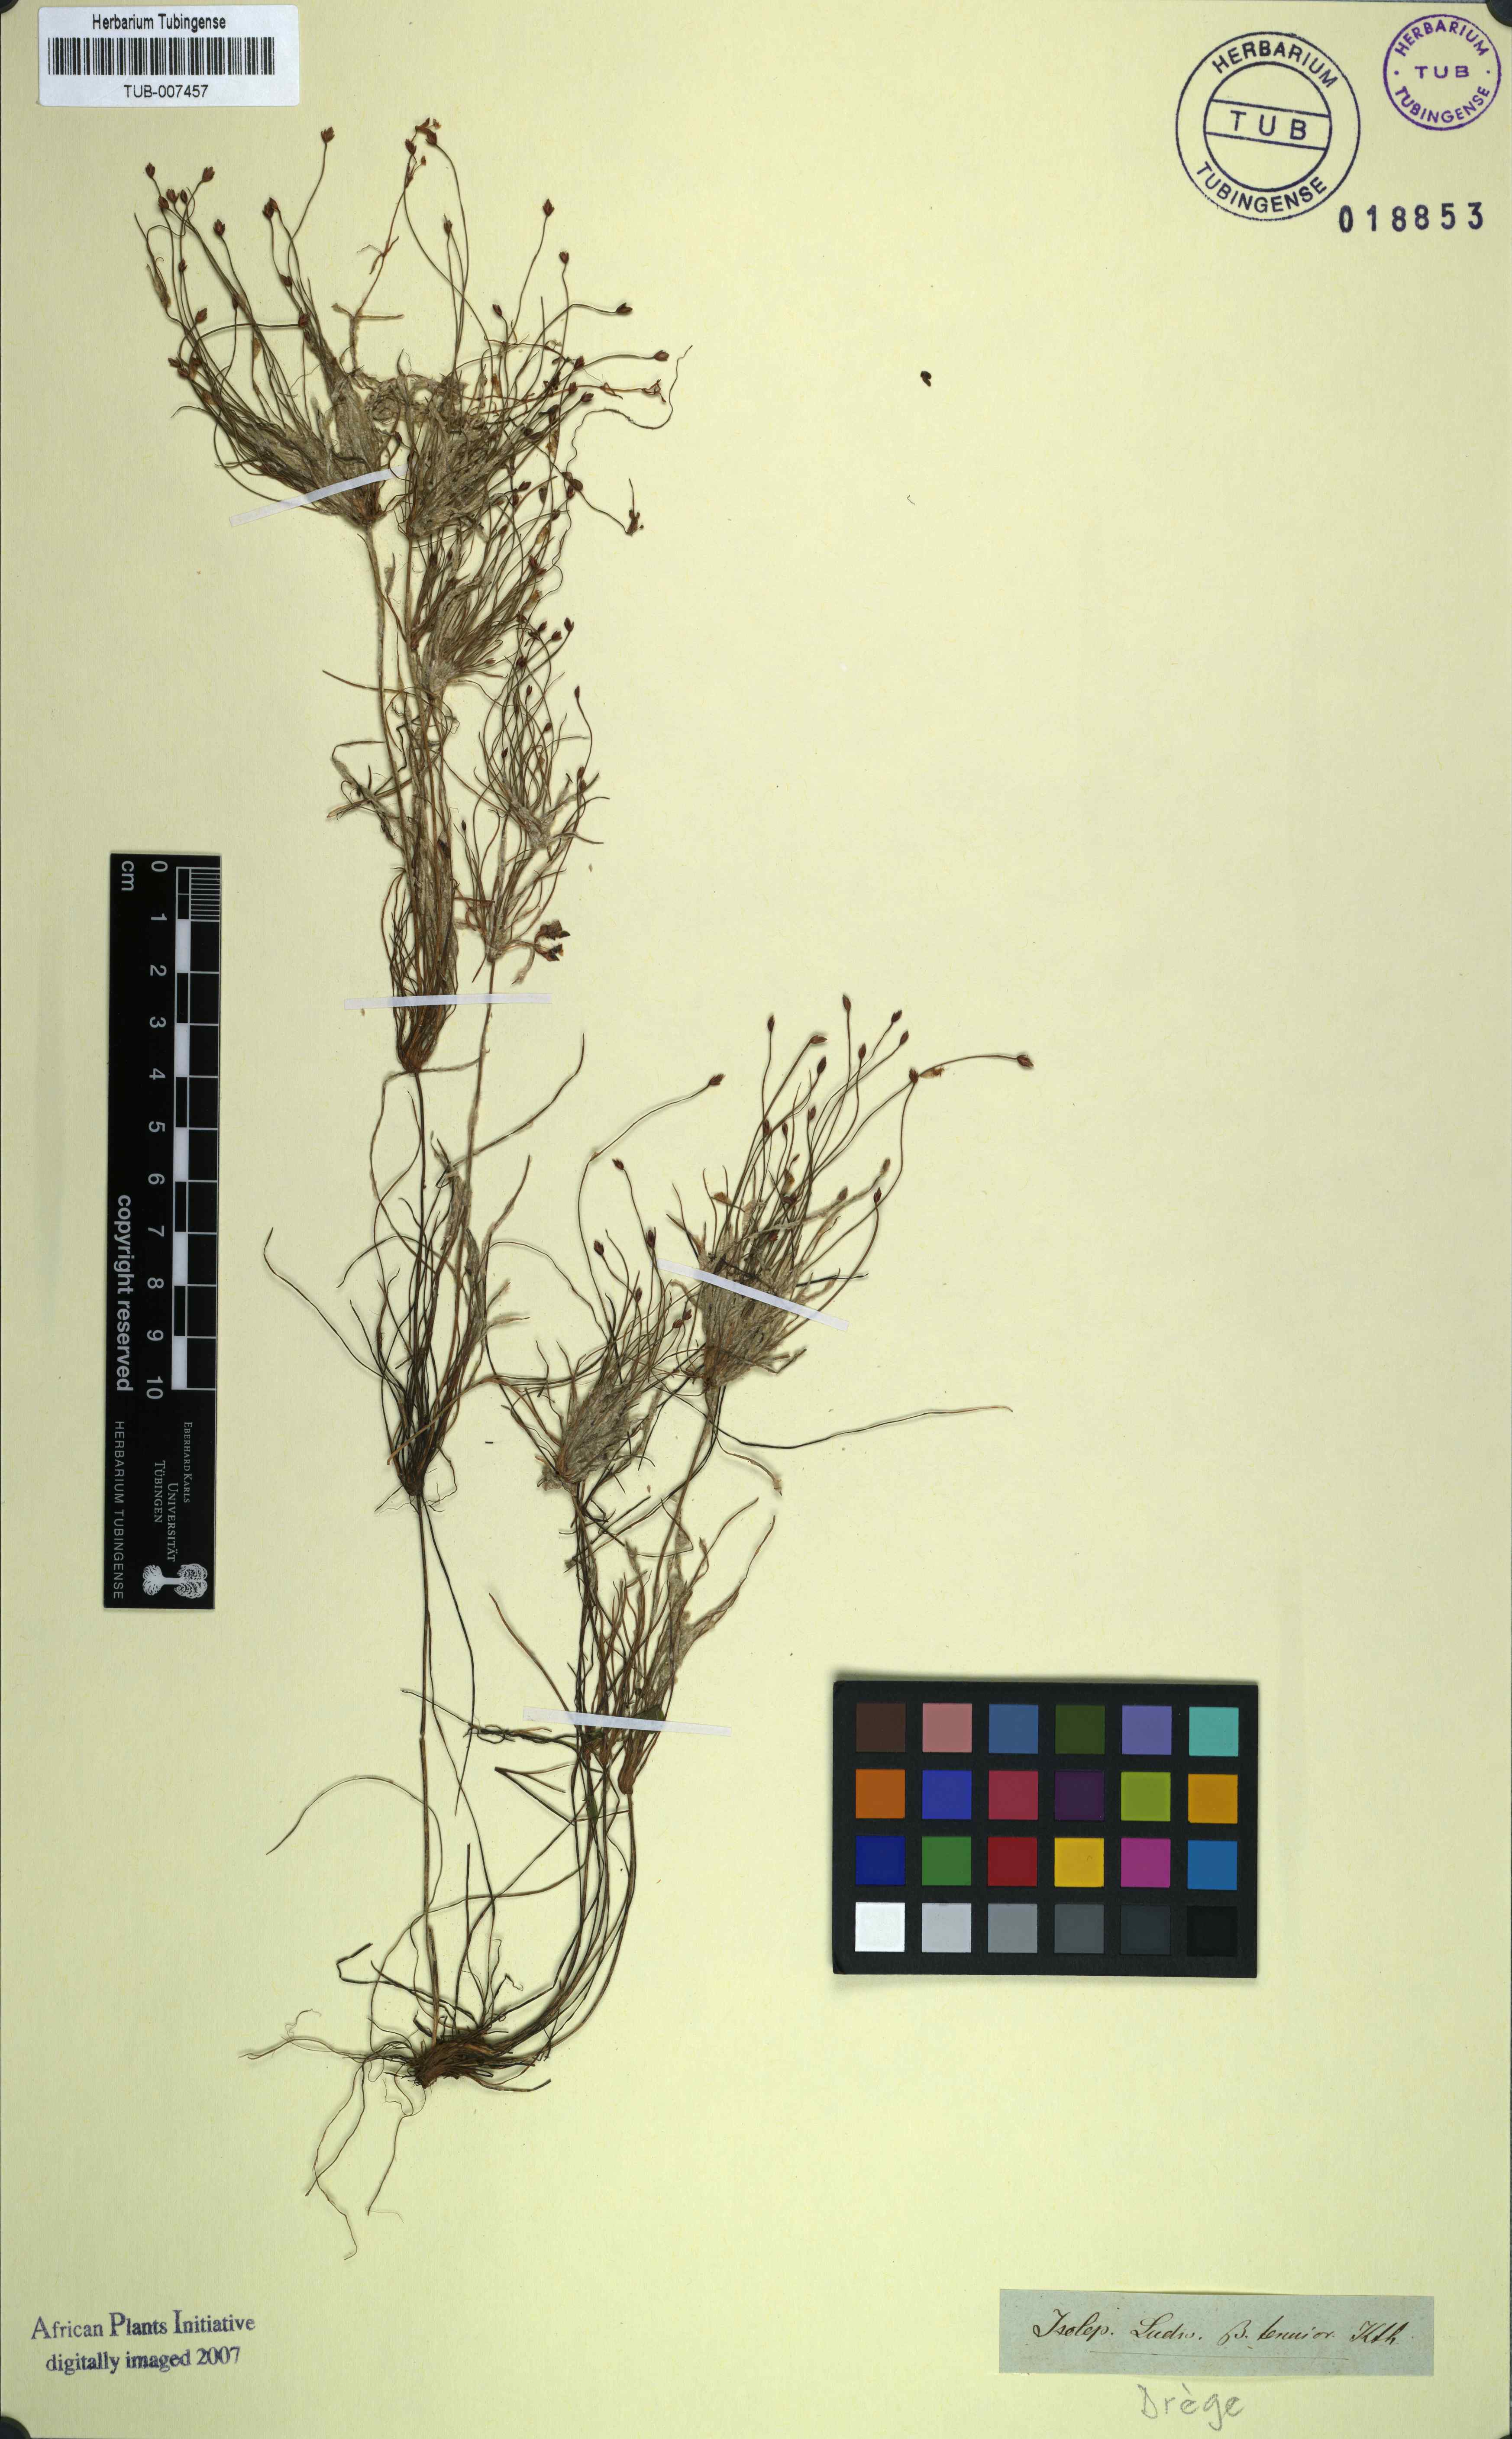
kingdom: Plantae
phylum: Tracheophyta
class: Liliopsida
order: Poales
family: Cyperaceae
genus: Isolepis
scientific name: Isolepis ludwigii
